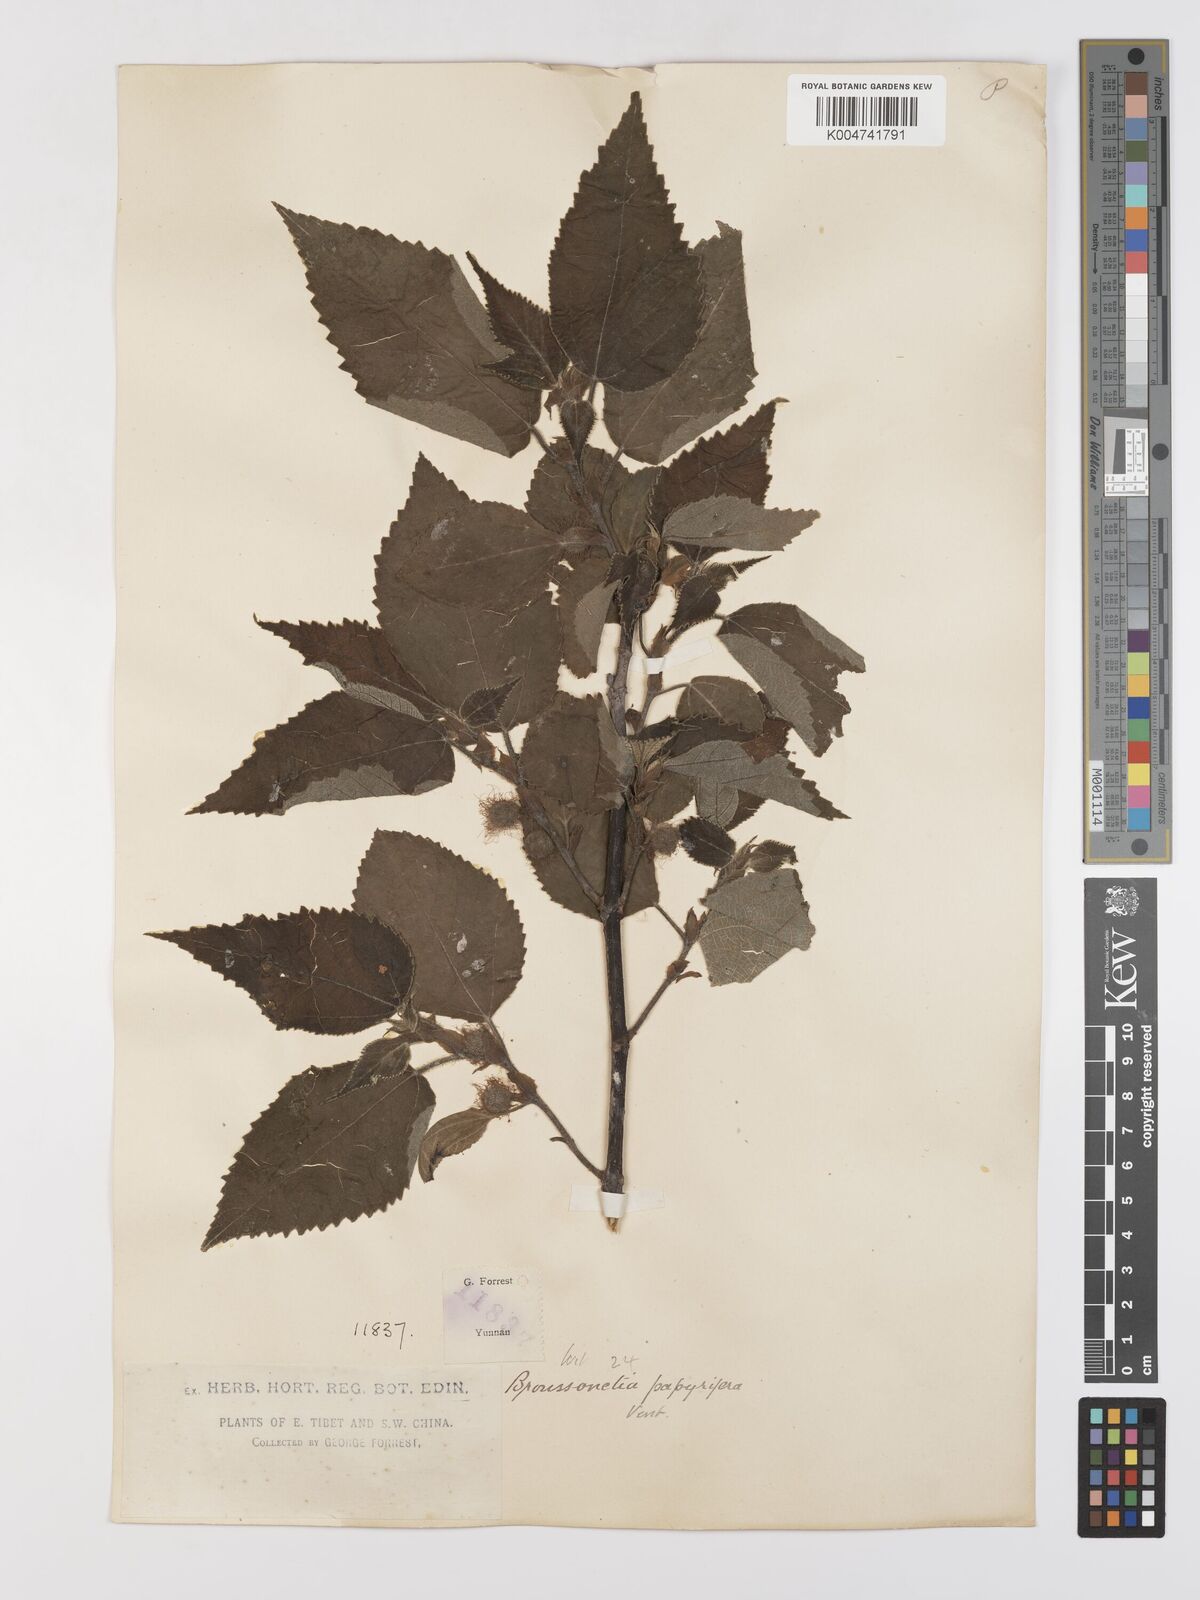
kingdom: Plantae
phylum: Tracheophyta
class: Magnoliopsida
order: Rosales
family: Moraceae
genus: Broussonetia
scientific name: Broussonetia papyrifera
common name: Paper mulberry
